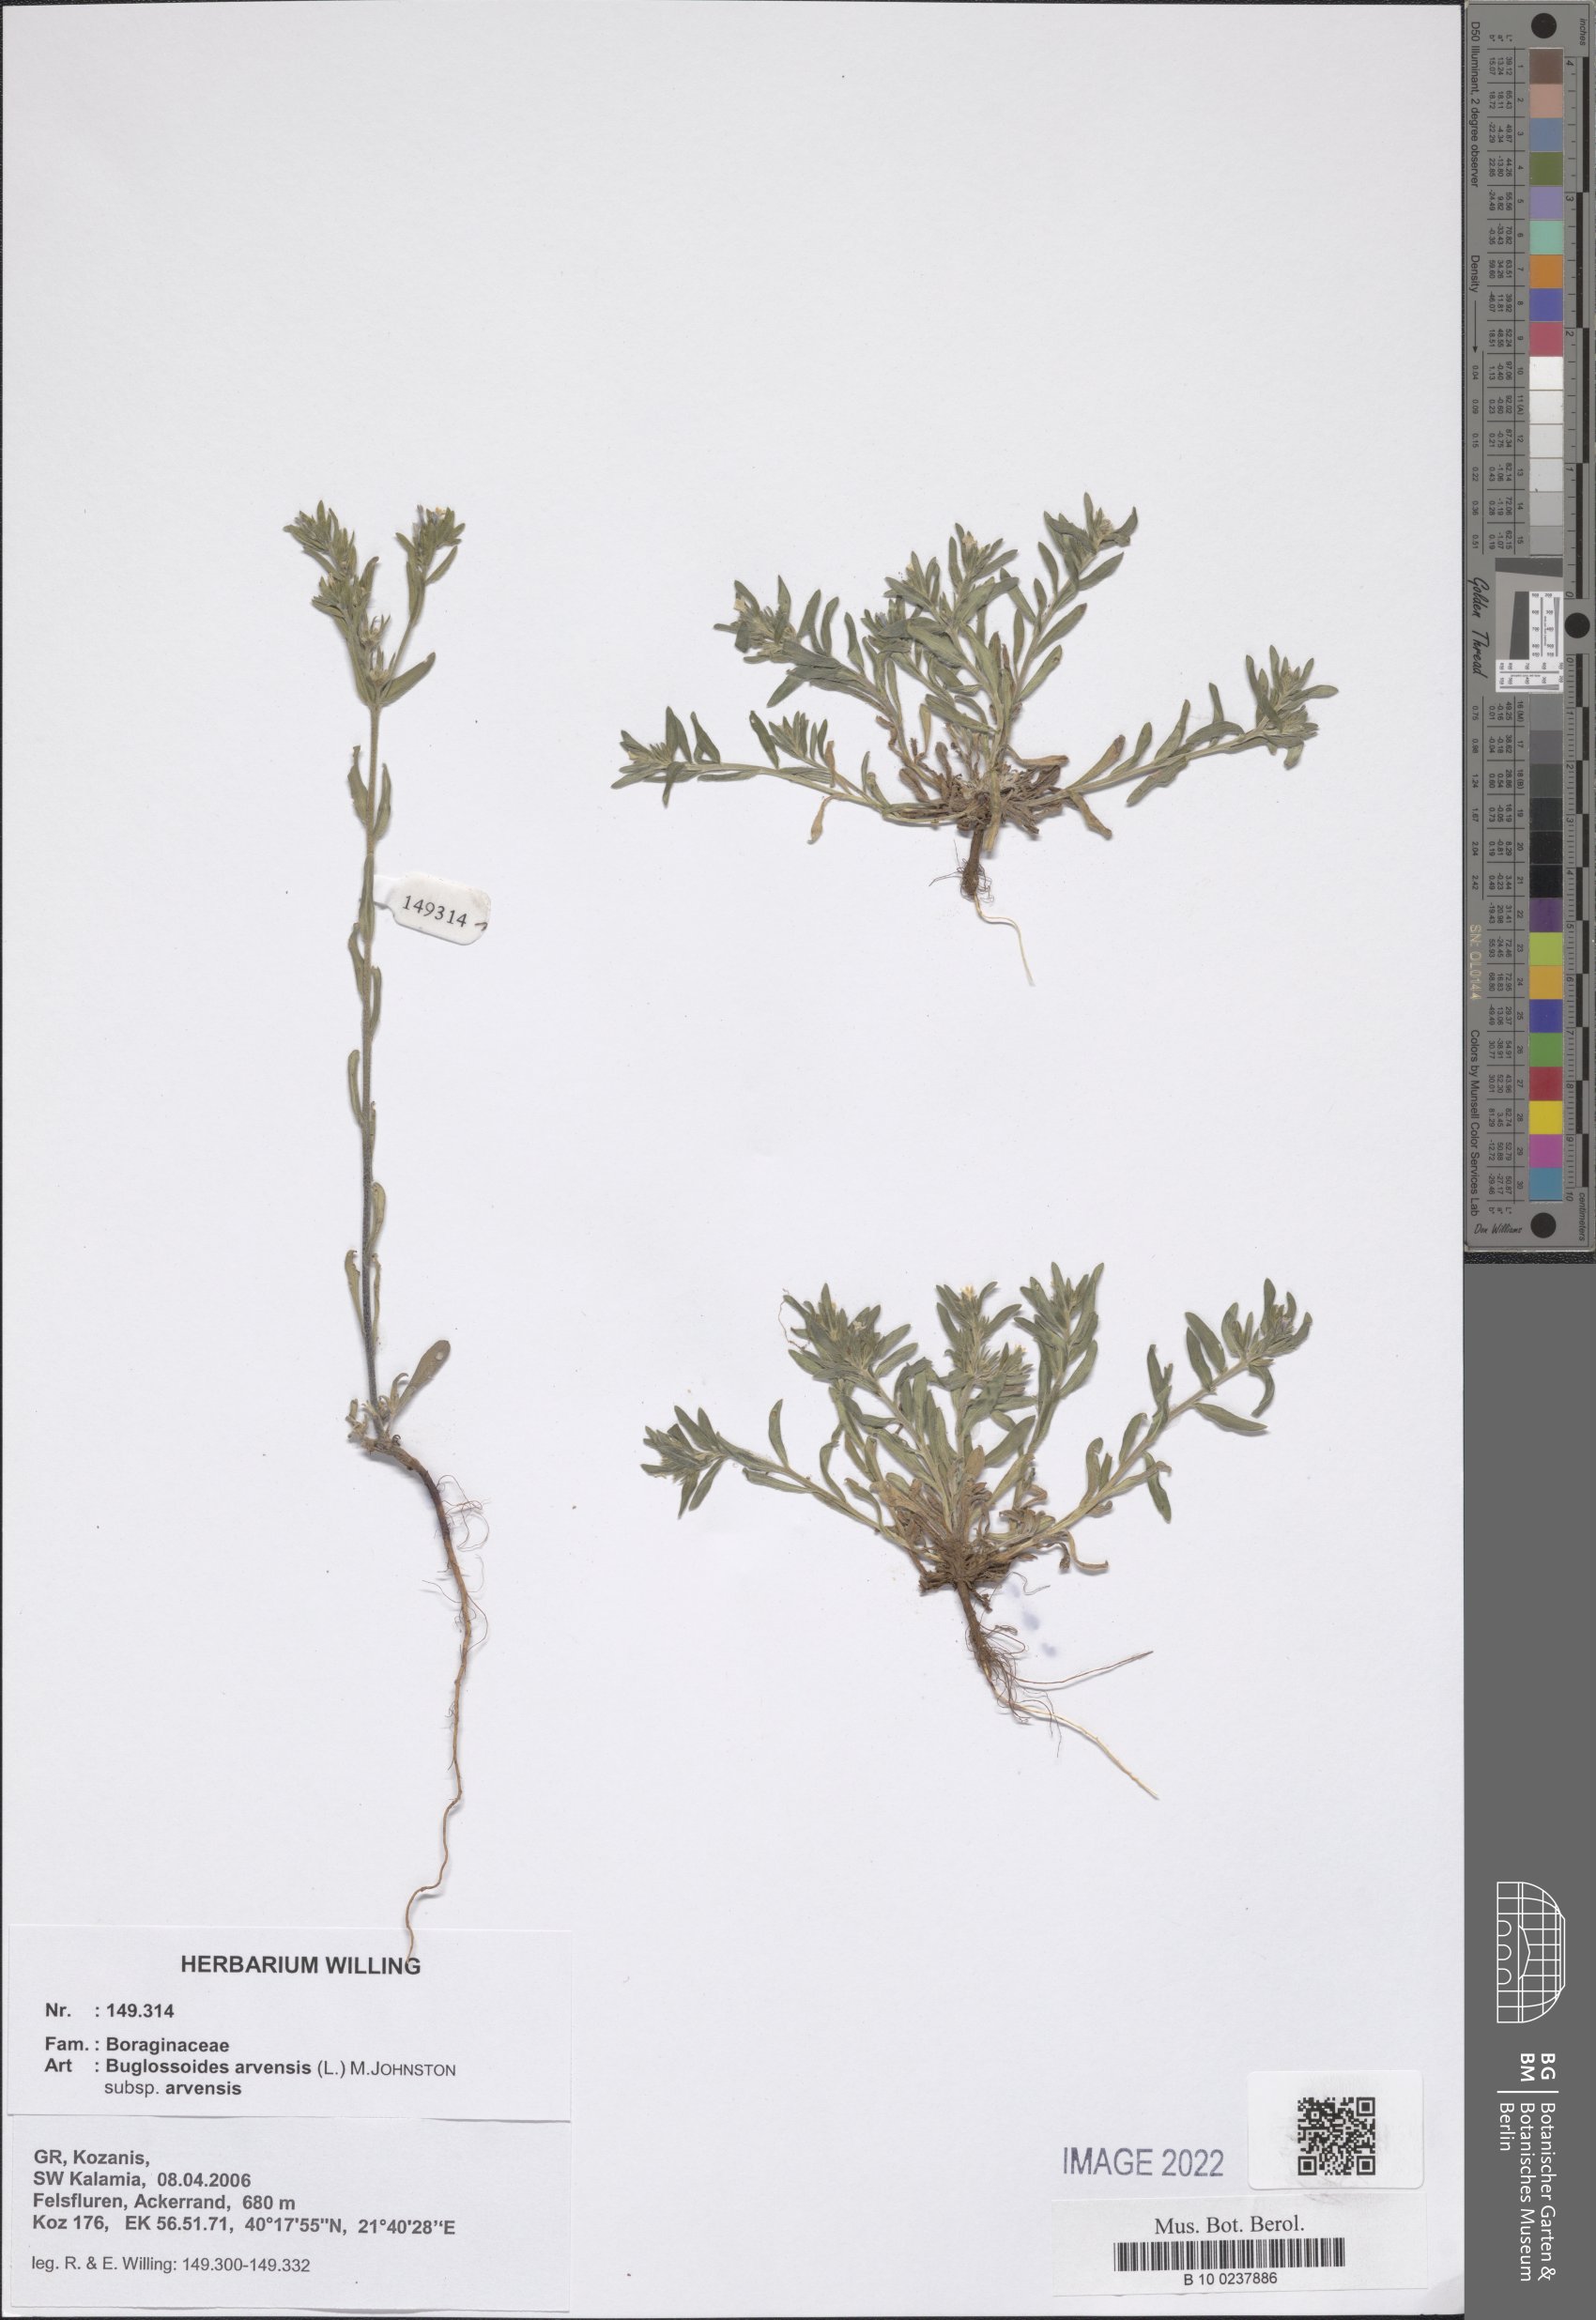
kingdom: Plantae
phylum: Tracheophyta
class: Magnoliopsida
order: Boraginales
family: Boraginaceae
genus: Buglossoides
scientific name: Buglossoides arvensis
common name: Corn gromwell
